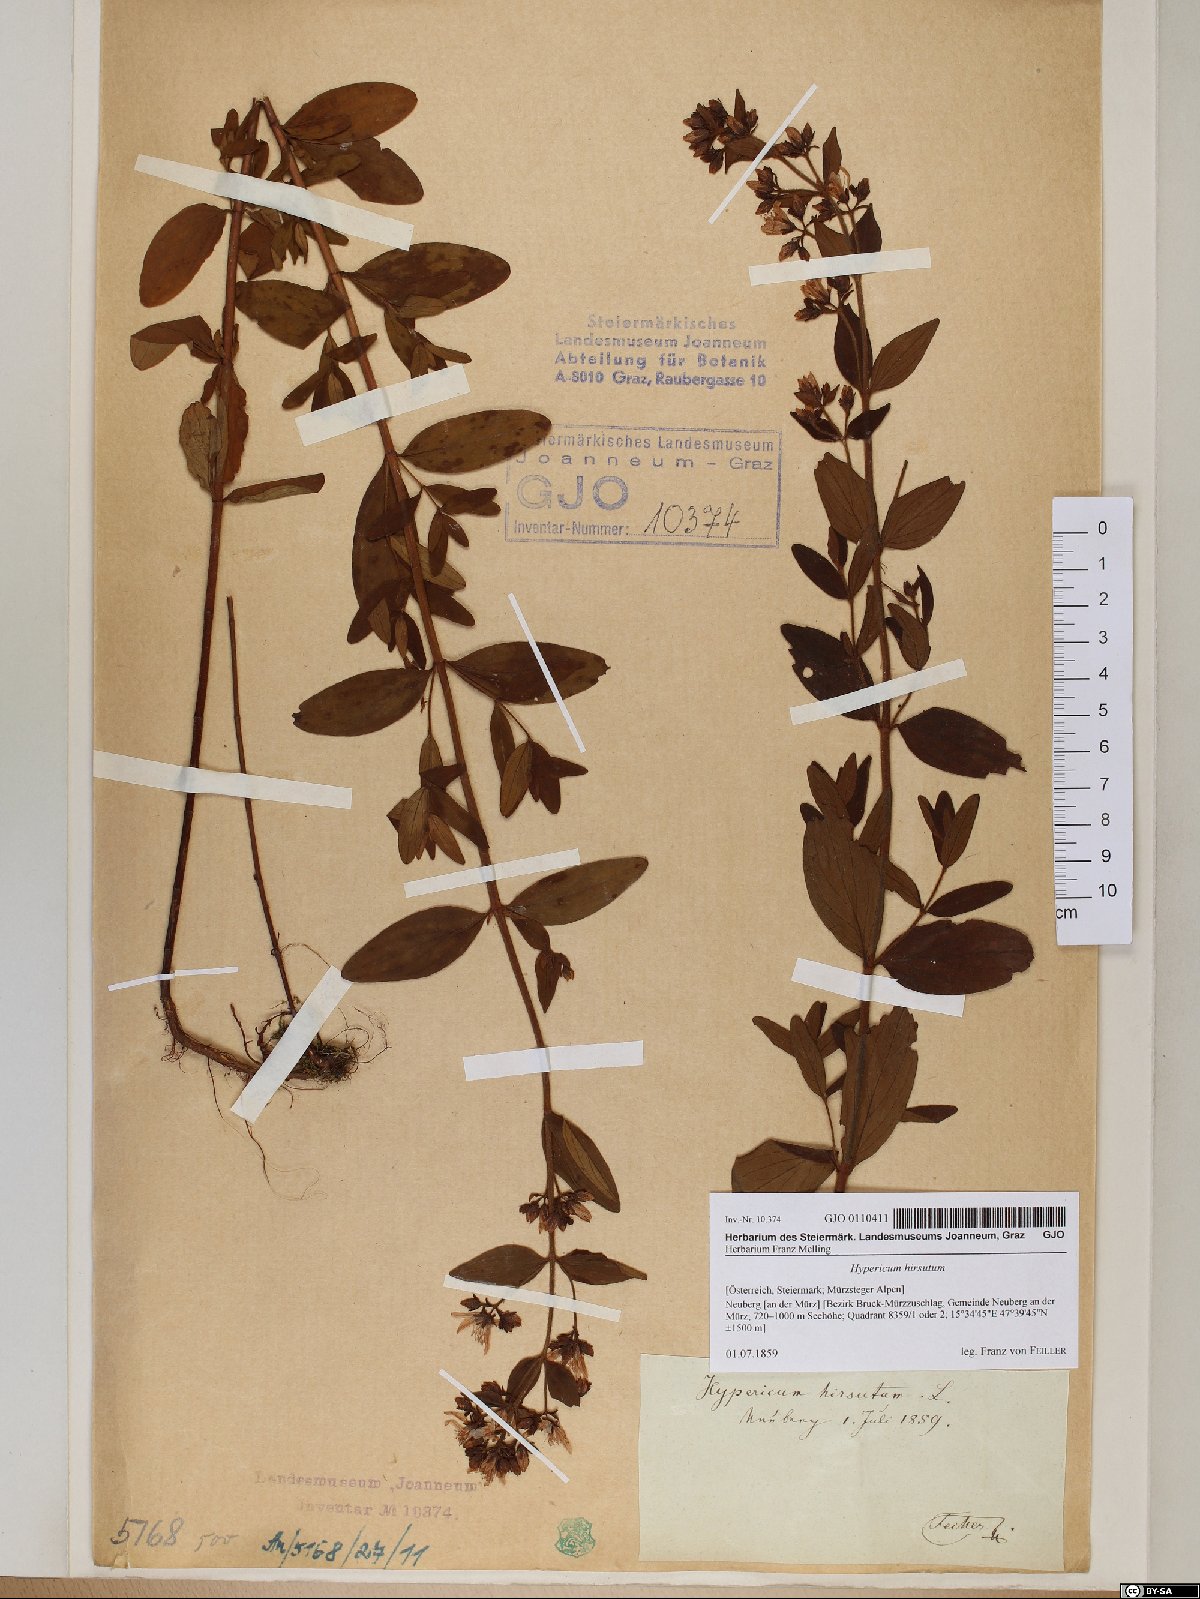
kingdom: Plantae
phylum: Tracheophyta
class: Magnoliopsida
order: Malpighiales
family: Hypericaceae
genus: Hypericum
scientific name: Hypericum hirsutum
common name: Hairy st. john's-wort
